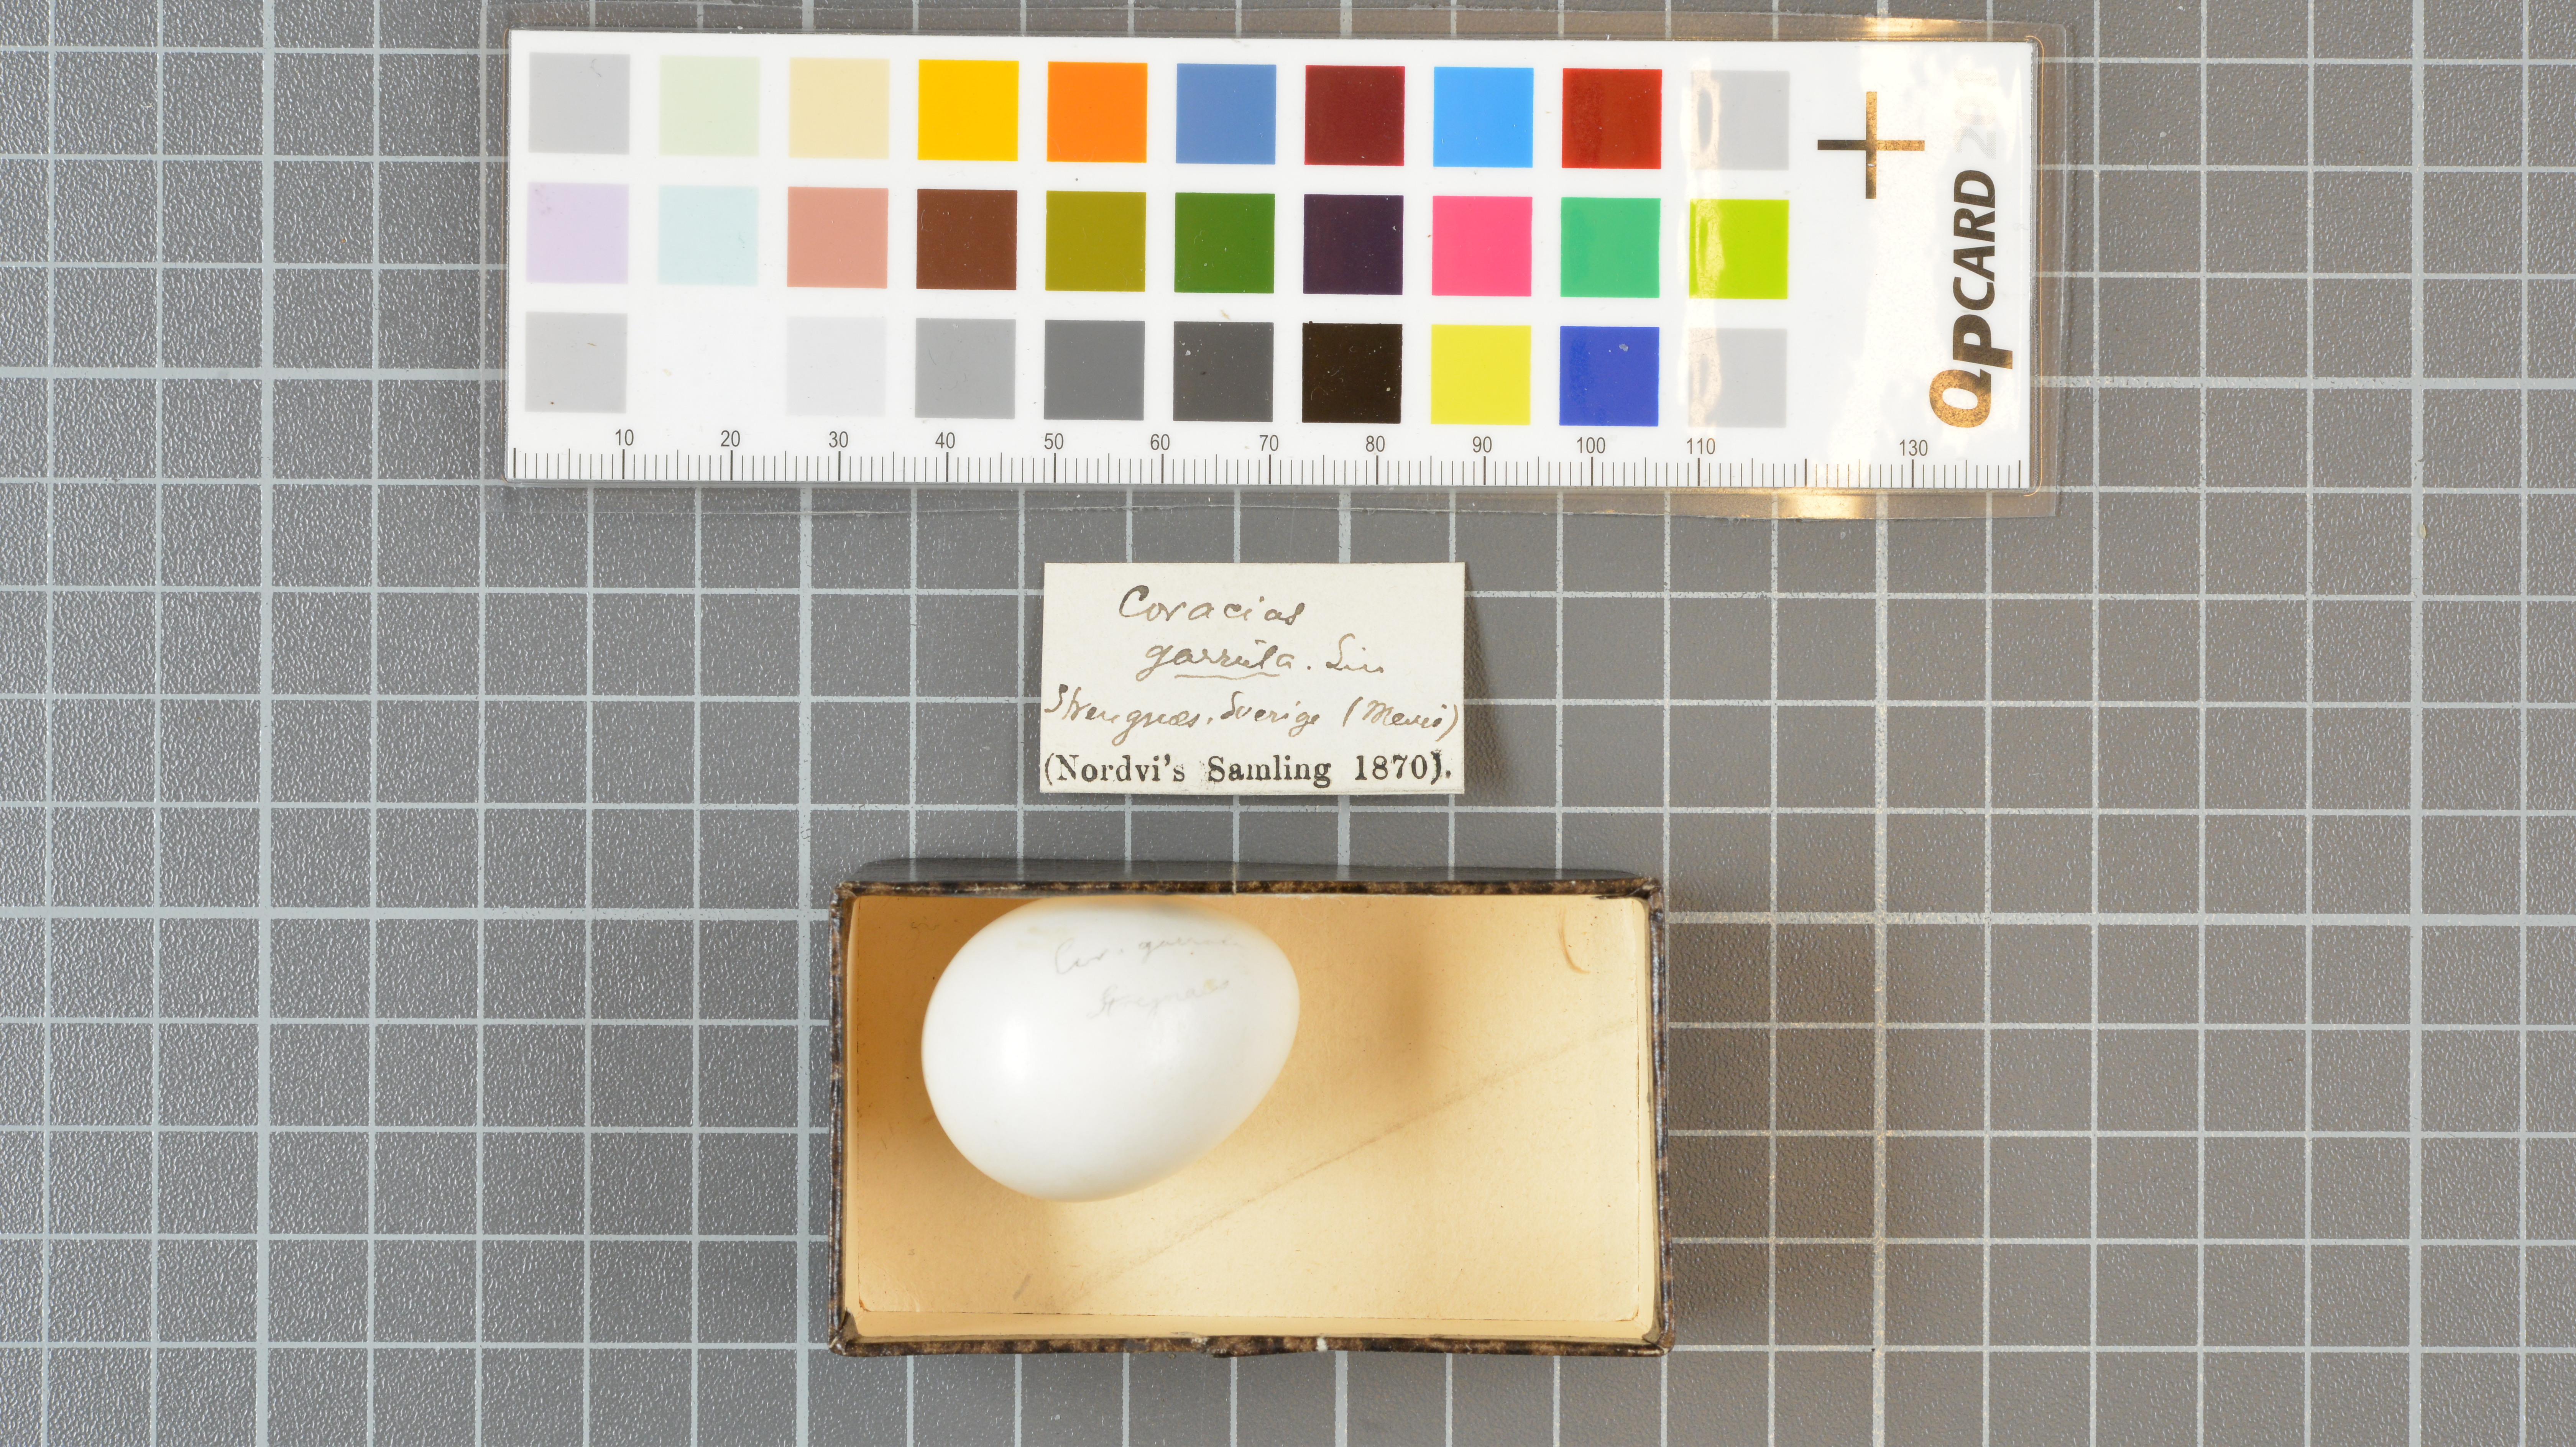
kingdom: Animalia
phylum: Chordata
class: Aves
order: Coraciiformes
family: Coraciidae
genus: Coracias
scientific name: Coracias garrulus
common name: European roller
